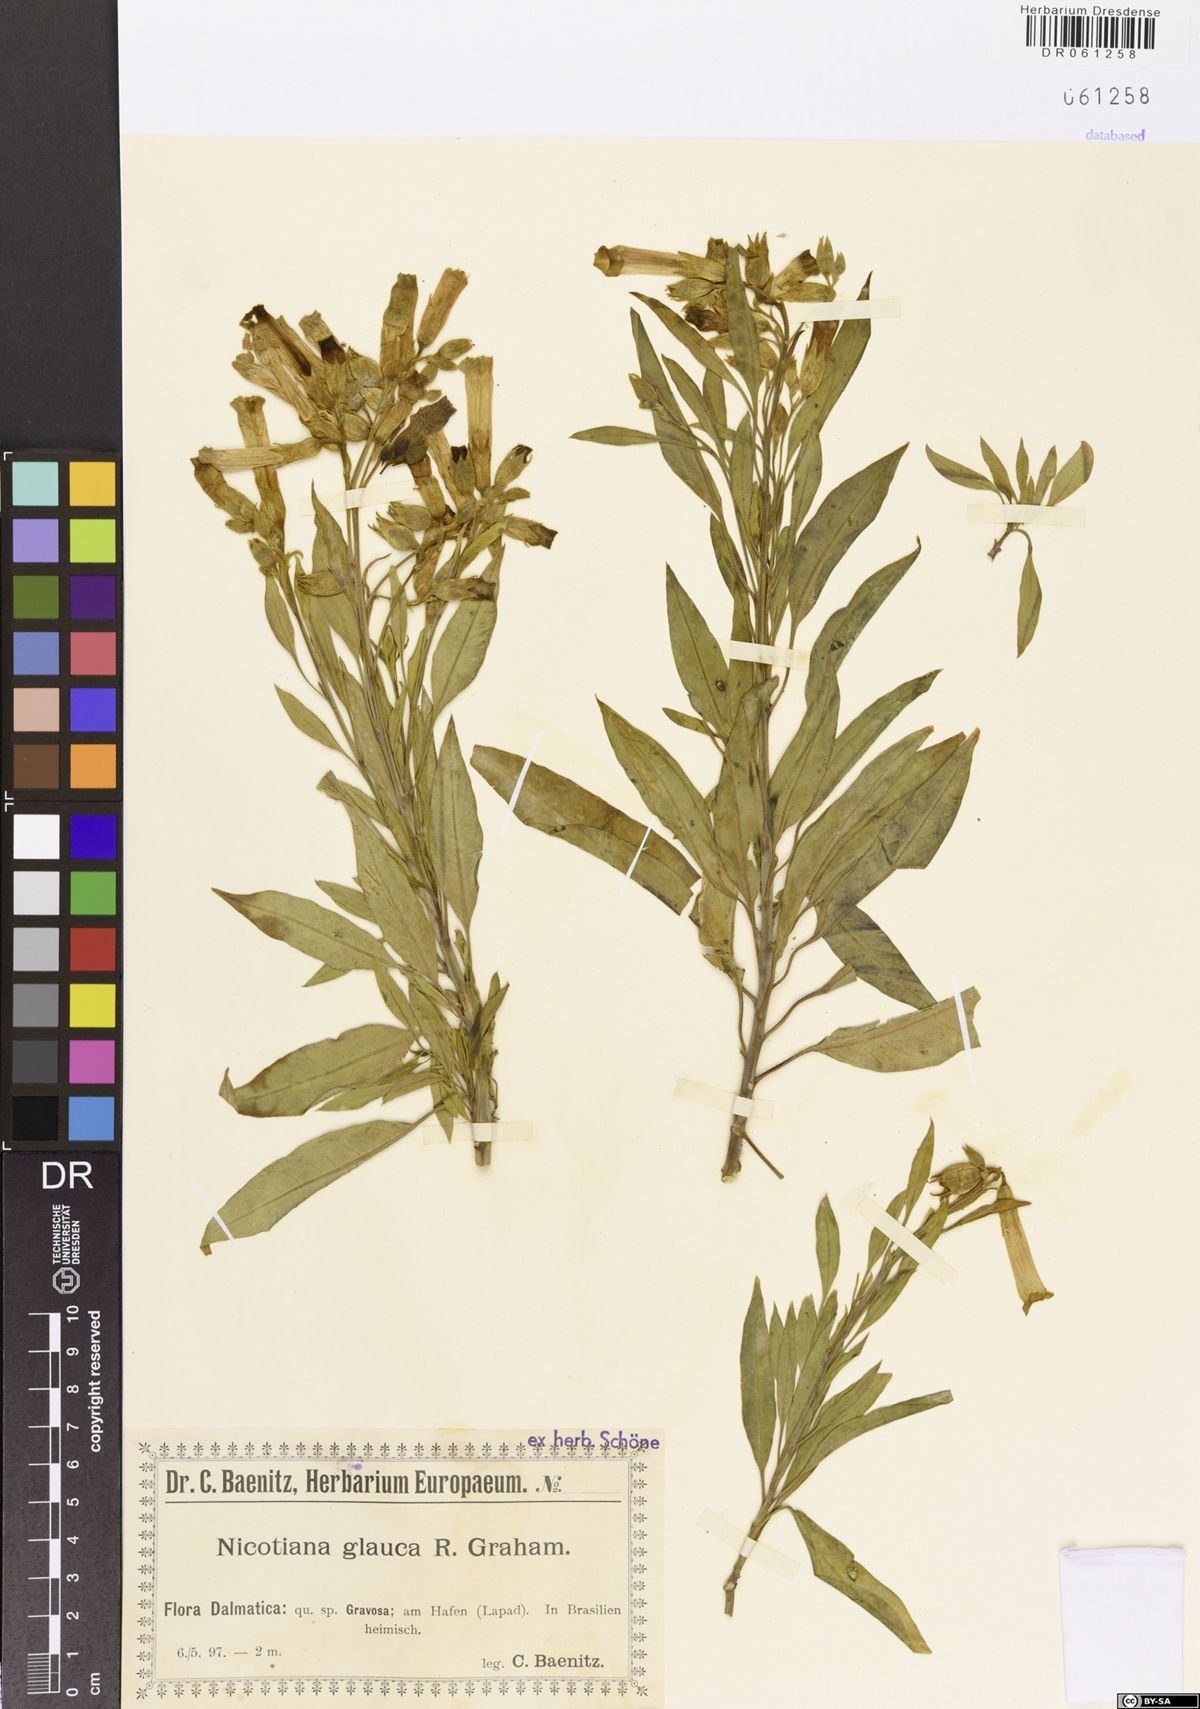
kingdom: Plantae
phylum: Tracheophyta
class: Magnoliopsida
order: Solanales
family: Solanaceae
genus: Nicotiana
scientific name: Nicotiana glauca
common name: Tree tobacco
